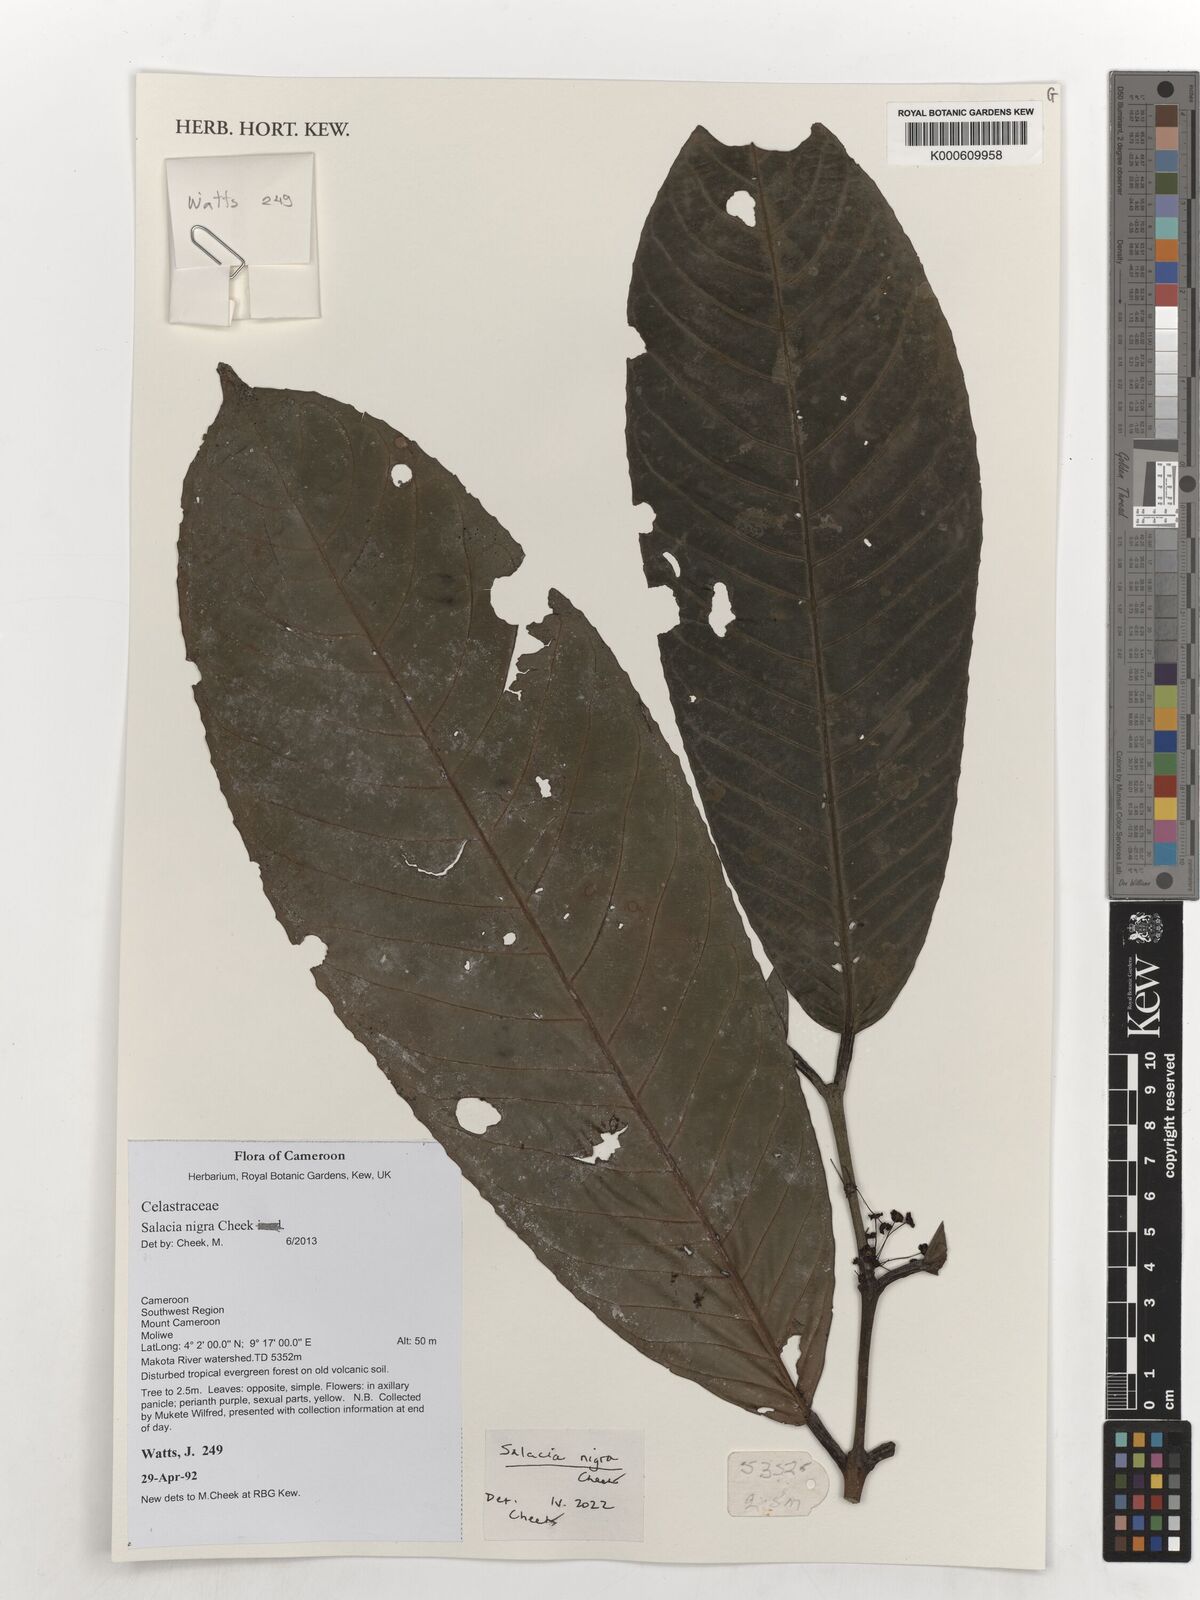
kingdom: Plantae
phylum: Tracheophyta
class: Magnoliopsida
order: Celastrales
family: Celastraceae
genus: Salacia
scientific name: Salacia nigra
